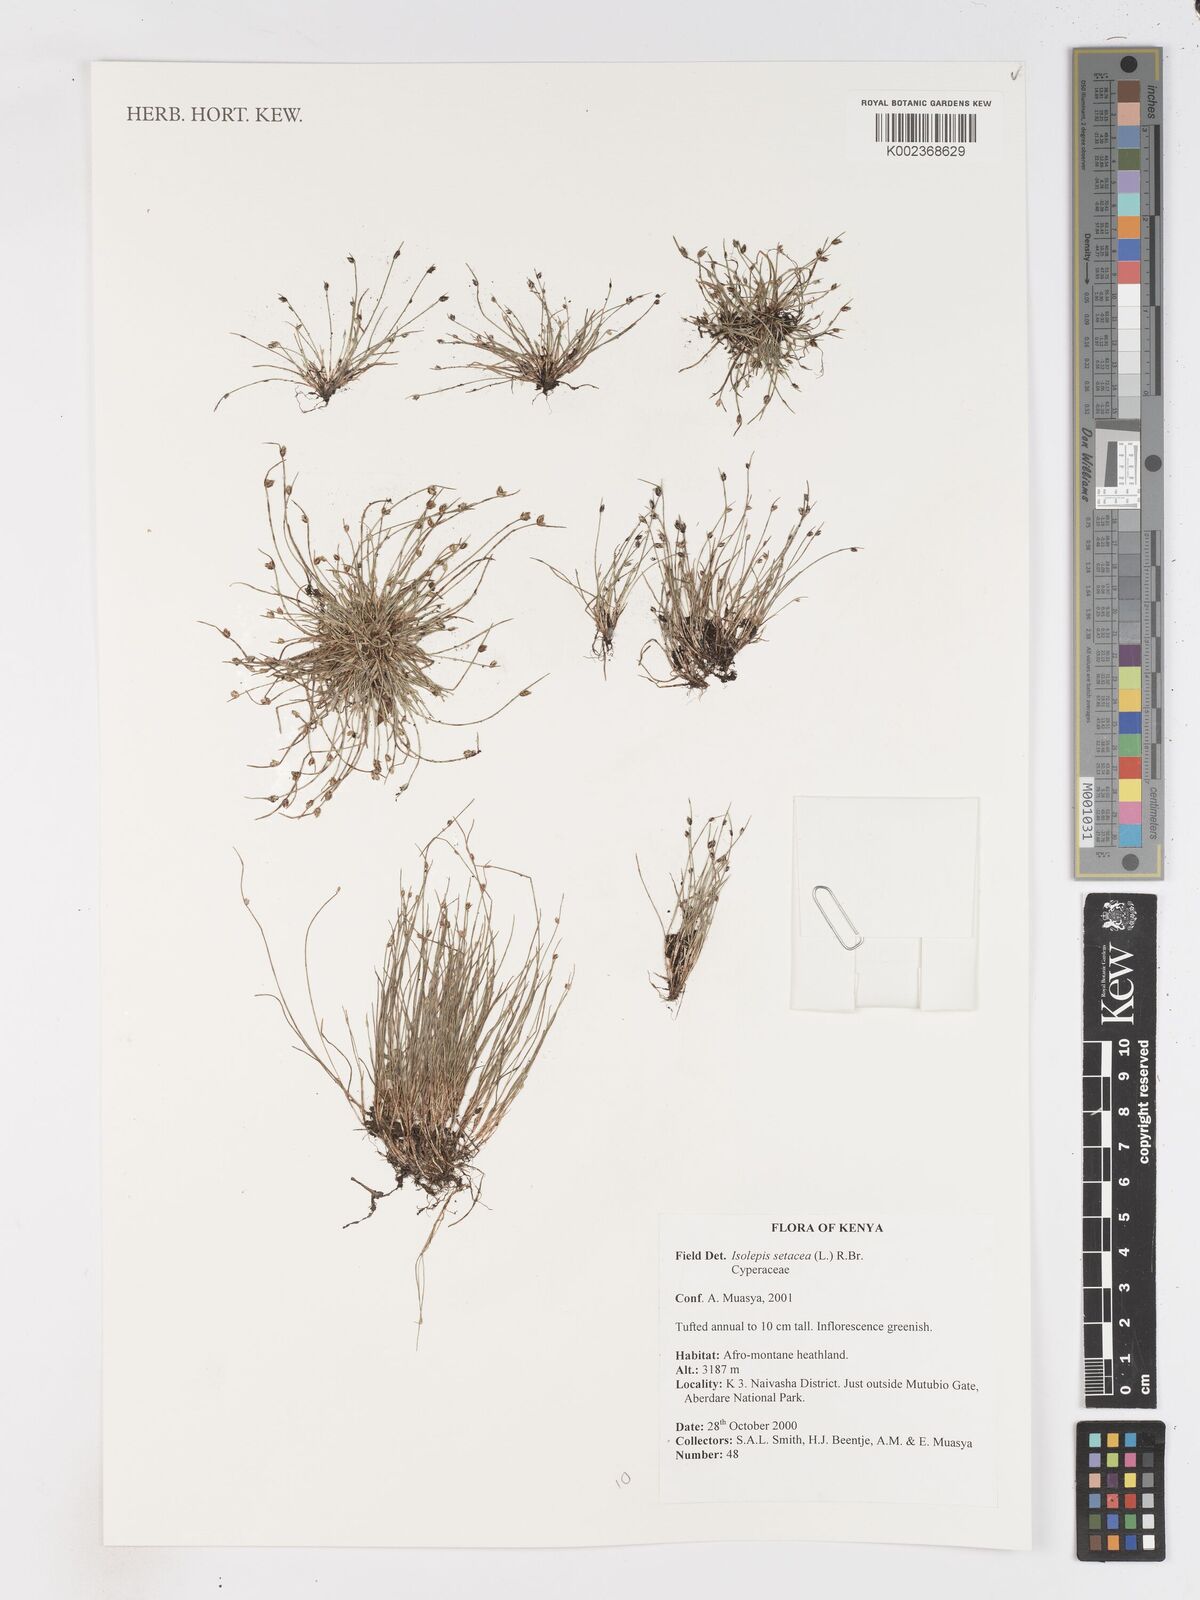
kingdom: Plantae
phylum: Tracheophyta
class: Liliopsida
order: Poales
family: Cyperaceae
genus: Isolepis
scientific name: Isolepis setacea
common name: Bristle club-rush
